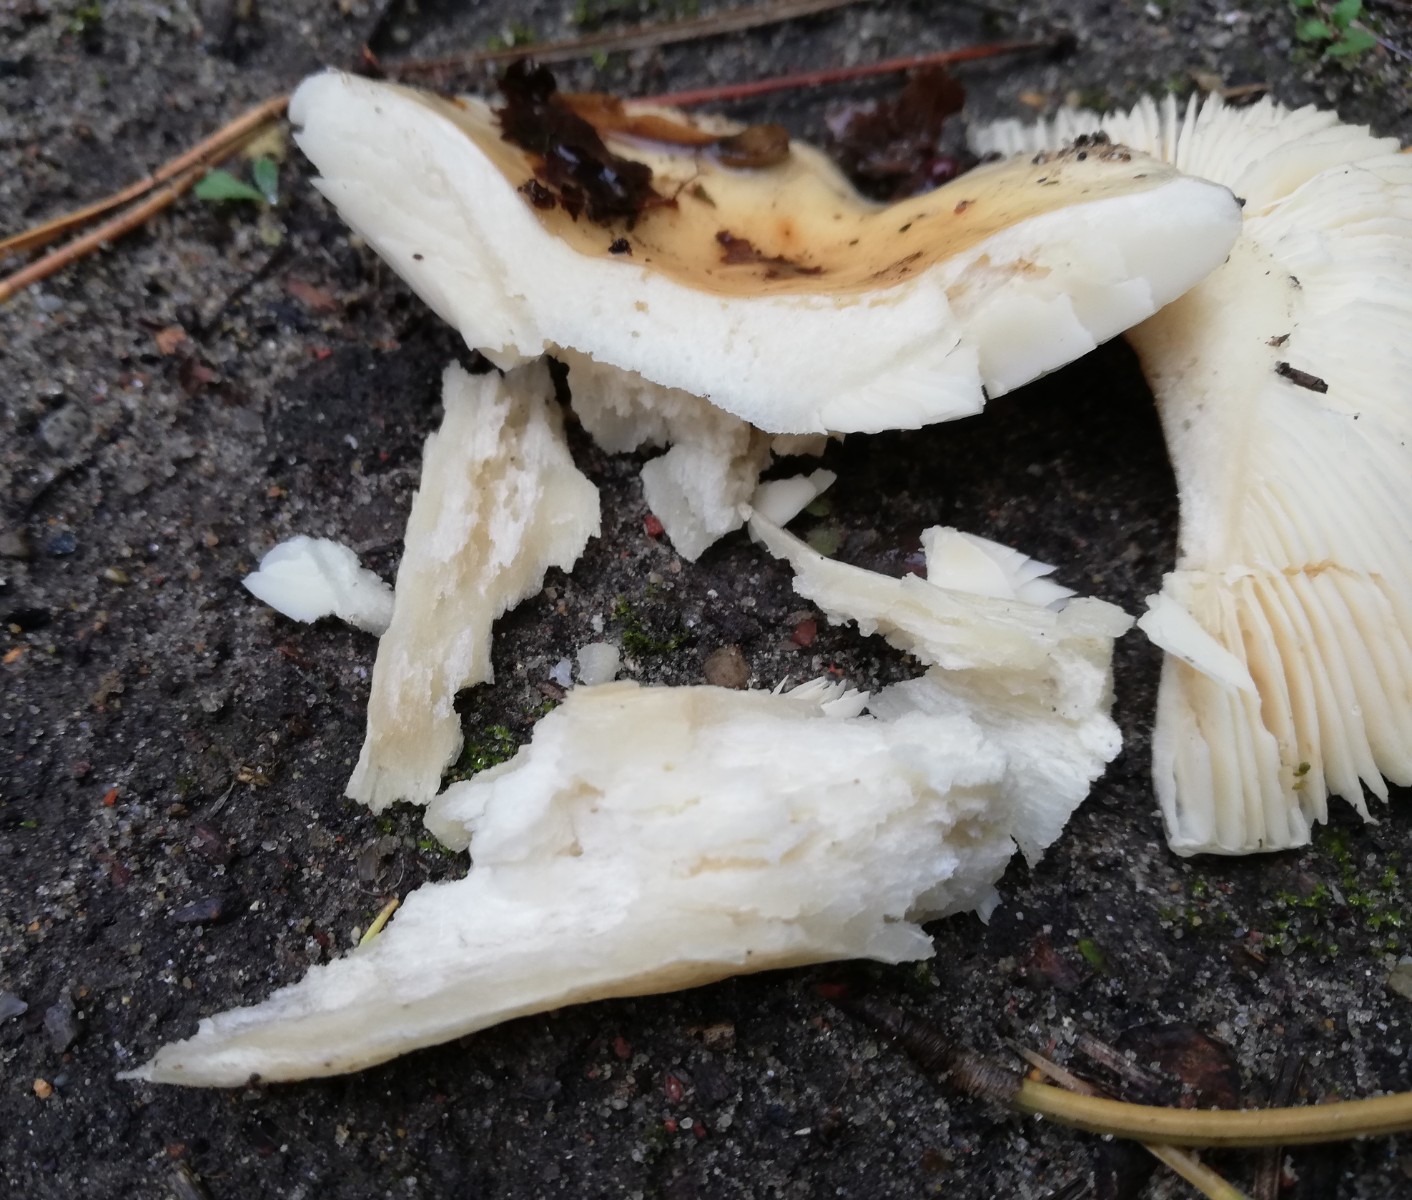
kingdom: Fungi
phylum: Basidiomycota
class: Agaricomycetes
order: Russulales
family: Russulaceae
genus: Russula
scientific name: Russula
